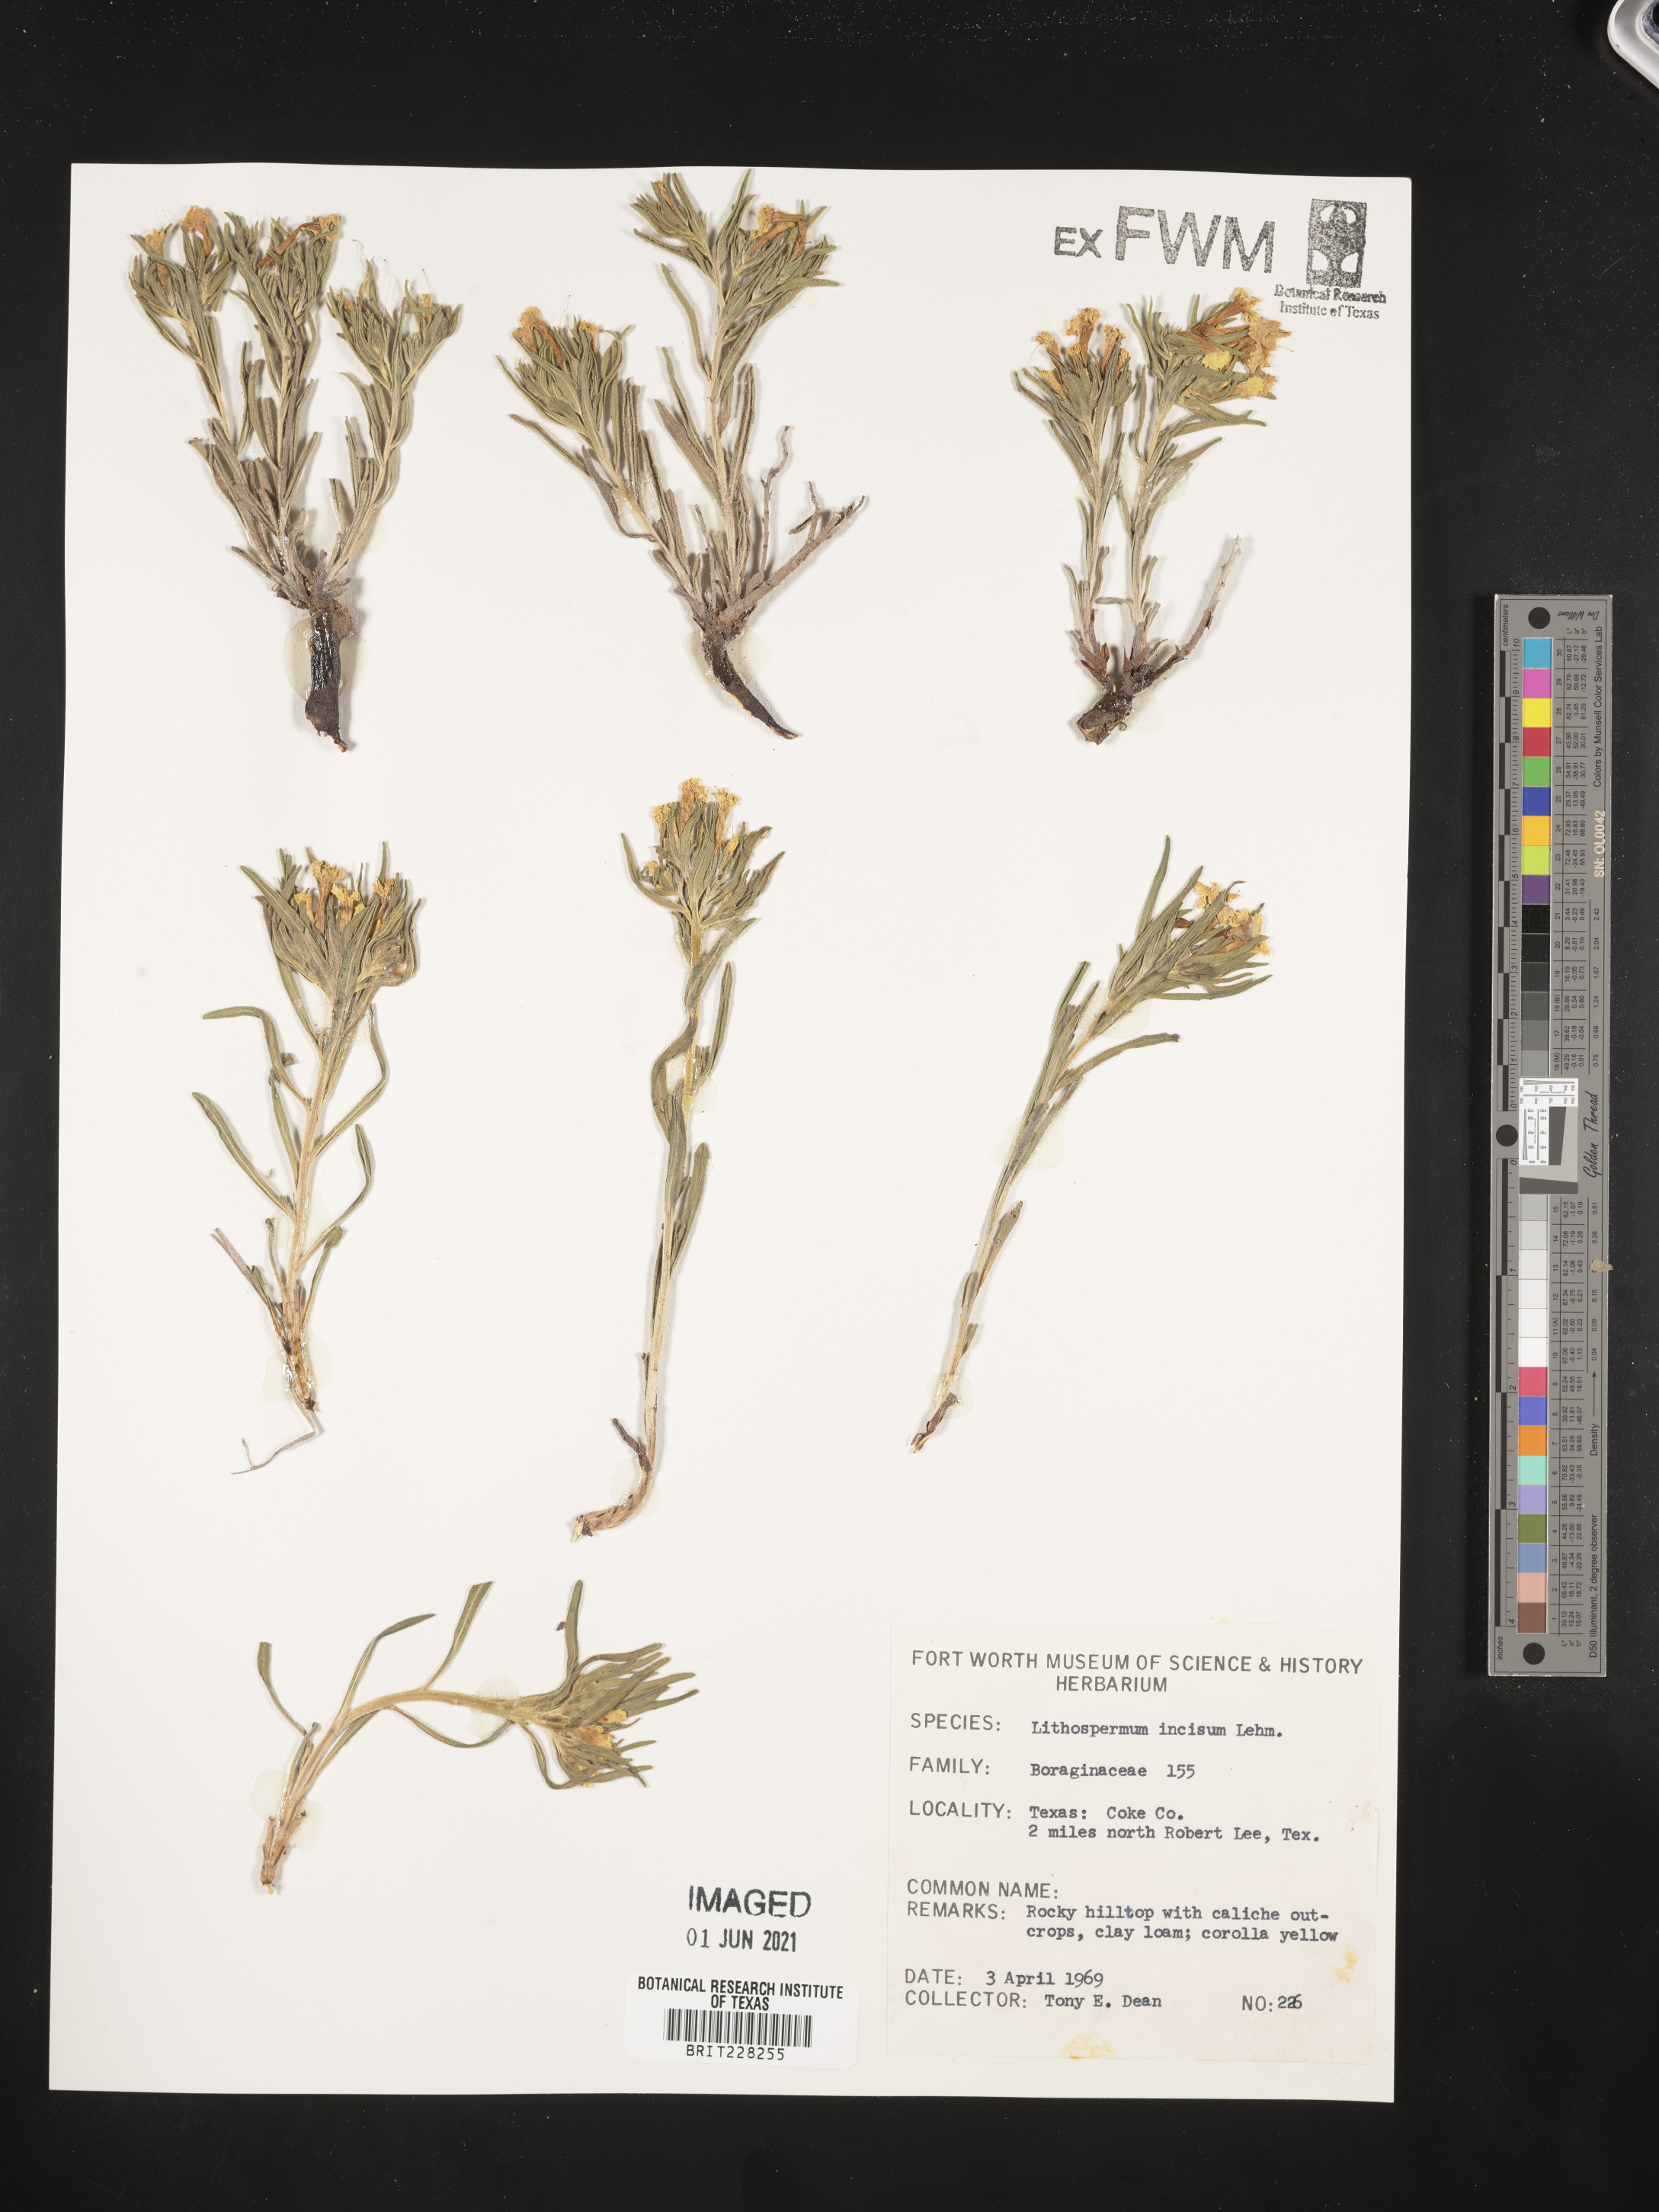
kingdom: Plantae
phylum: Tracheophyta
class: Magnoliopsida
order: Boraginales
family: Boraginaceae
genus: Lithospermum
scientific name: Lithospermum incisum
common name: Fringed gromwell
